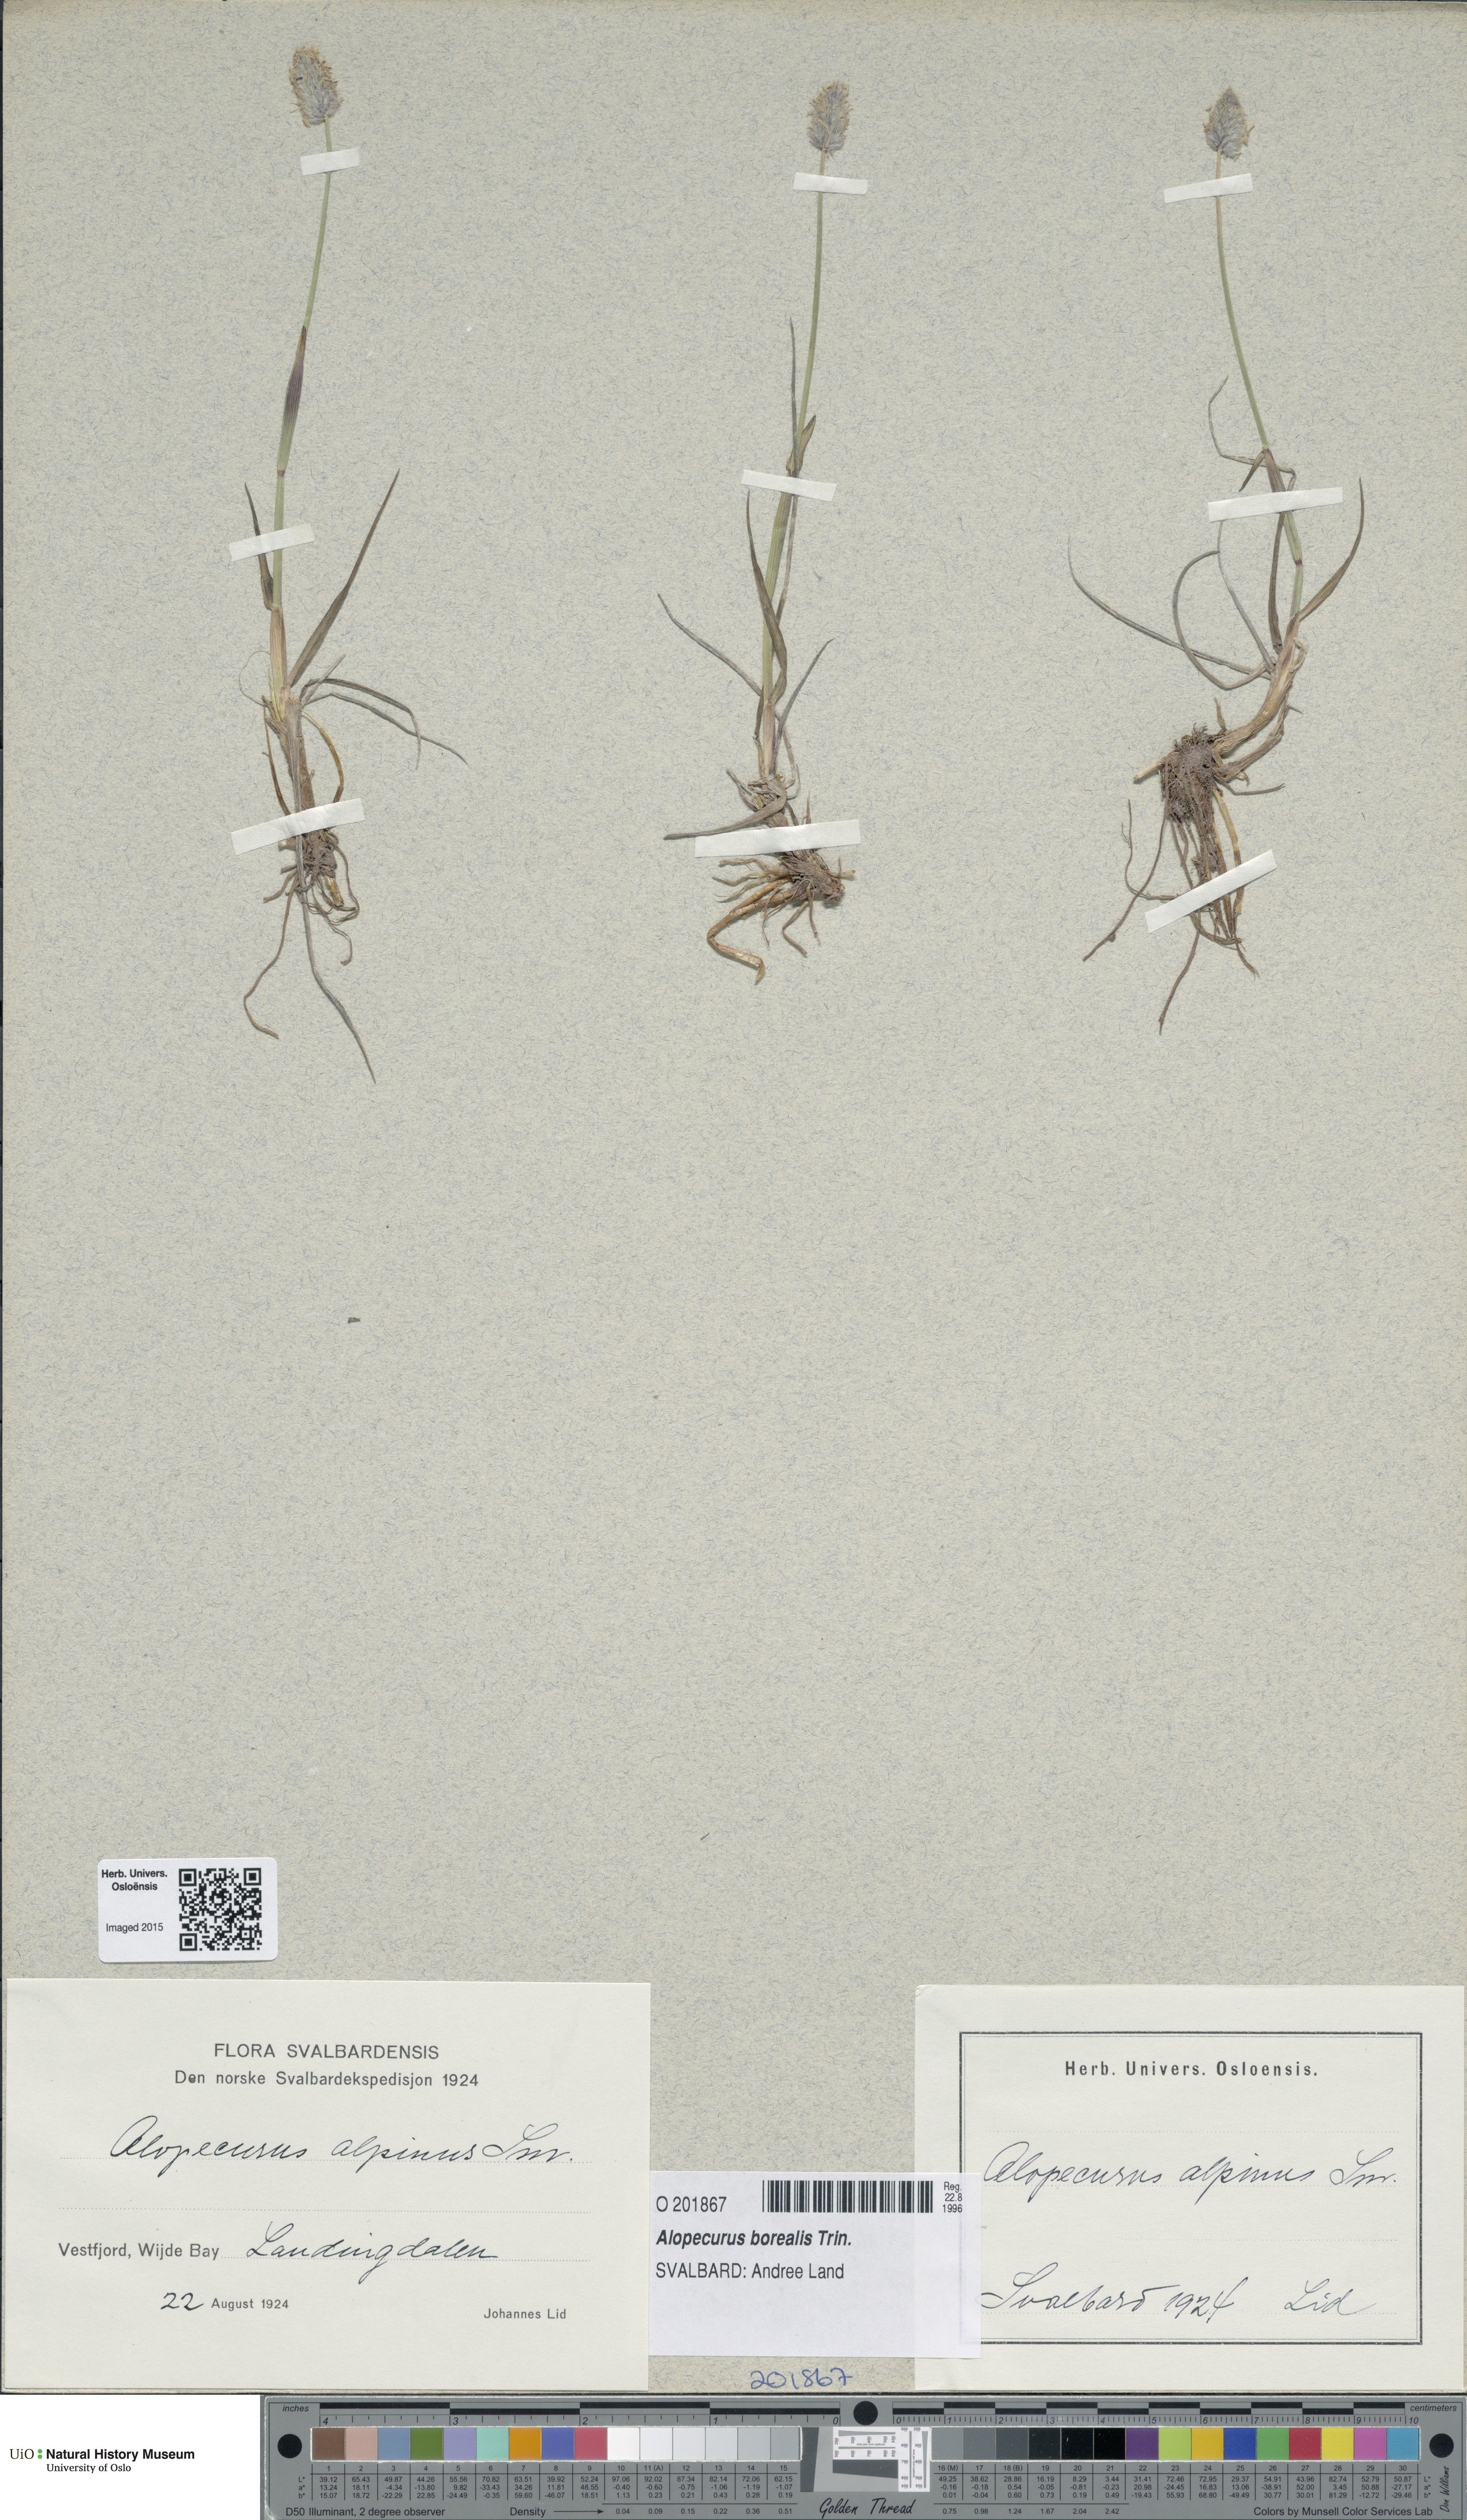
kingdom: Plantae
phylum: Tracheophyta
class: Liliopsida
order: Poales
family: Poaceae
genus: Alopecurus
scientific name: Alopecurus magellanicus
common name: Alpine foxtail
